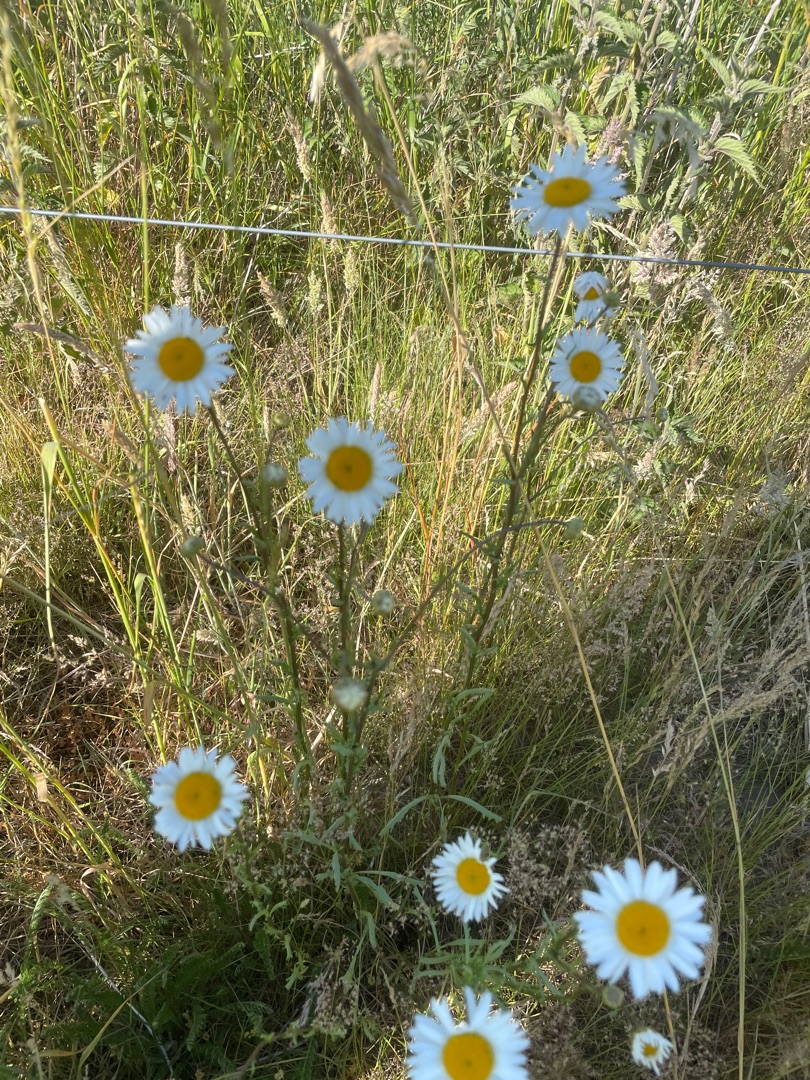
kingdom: Plantae
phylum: Tracheophyta
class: Magnoliopsida
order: Asterales
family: Asteraceae
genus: Leucanthemum
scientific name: Leucanthemum vulgare
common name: Hvid okseøje
